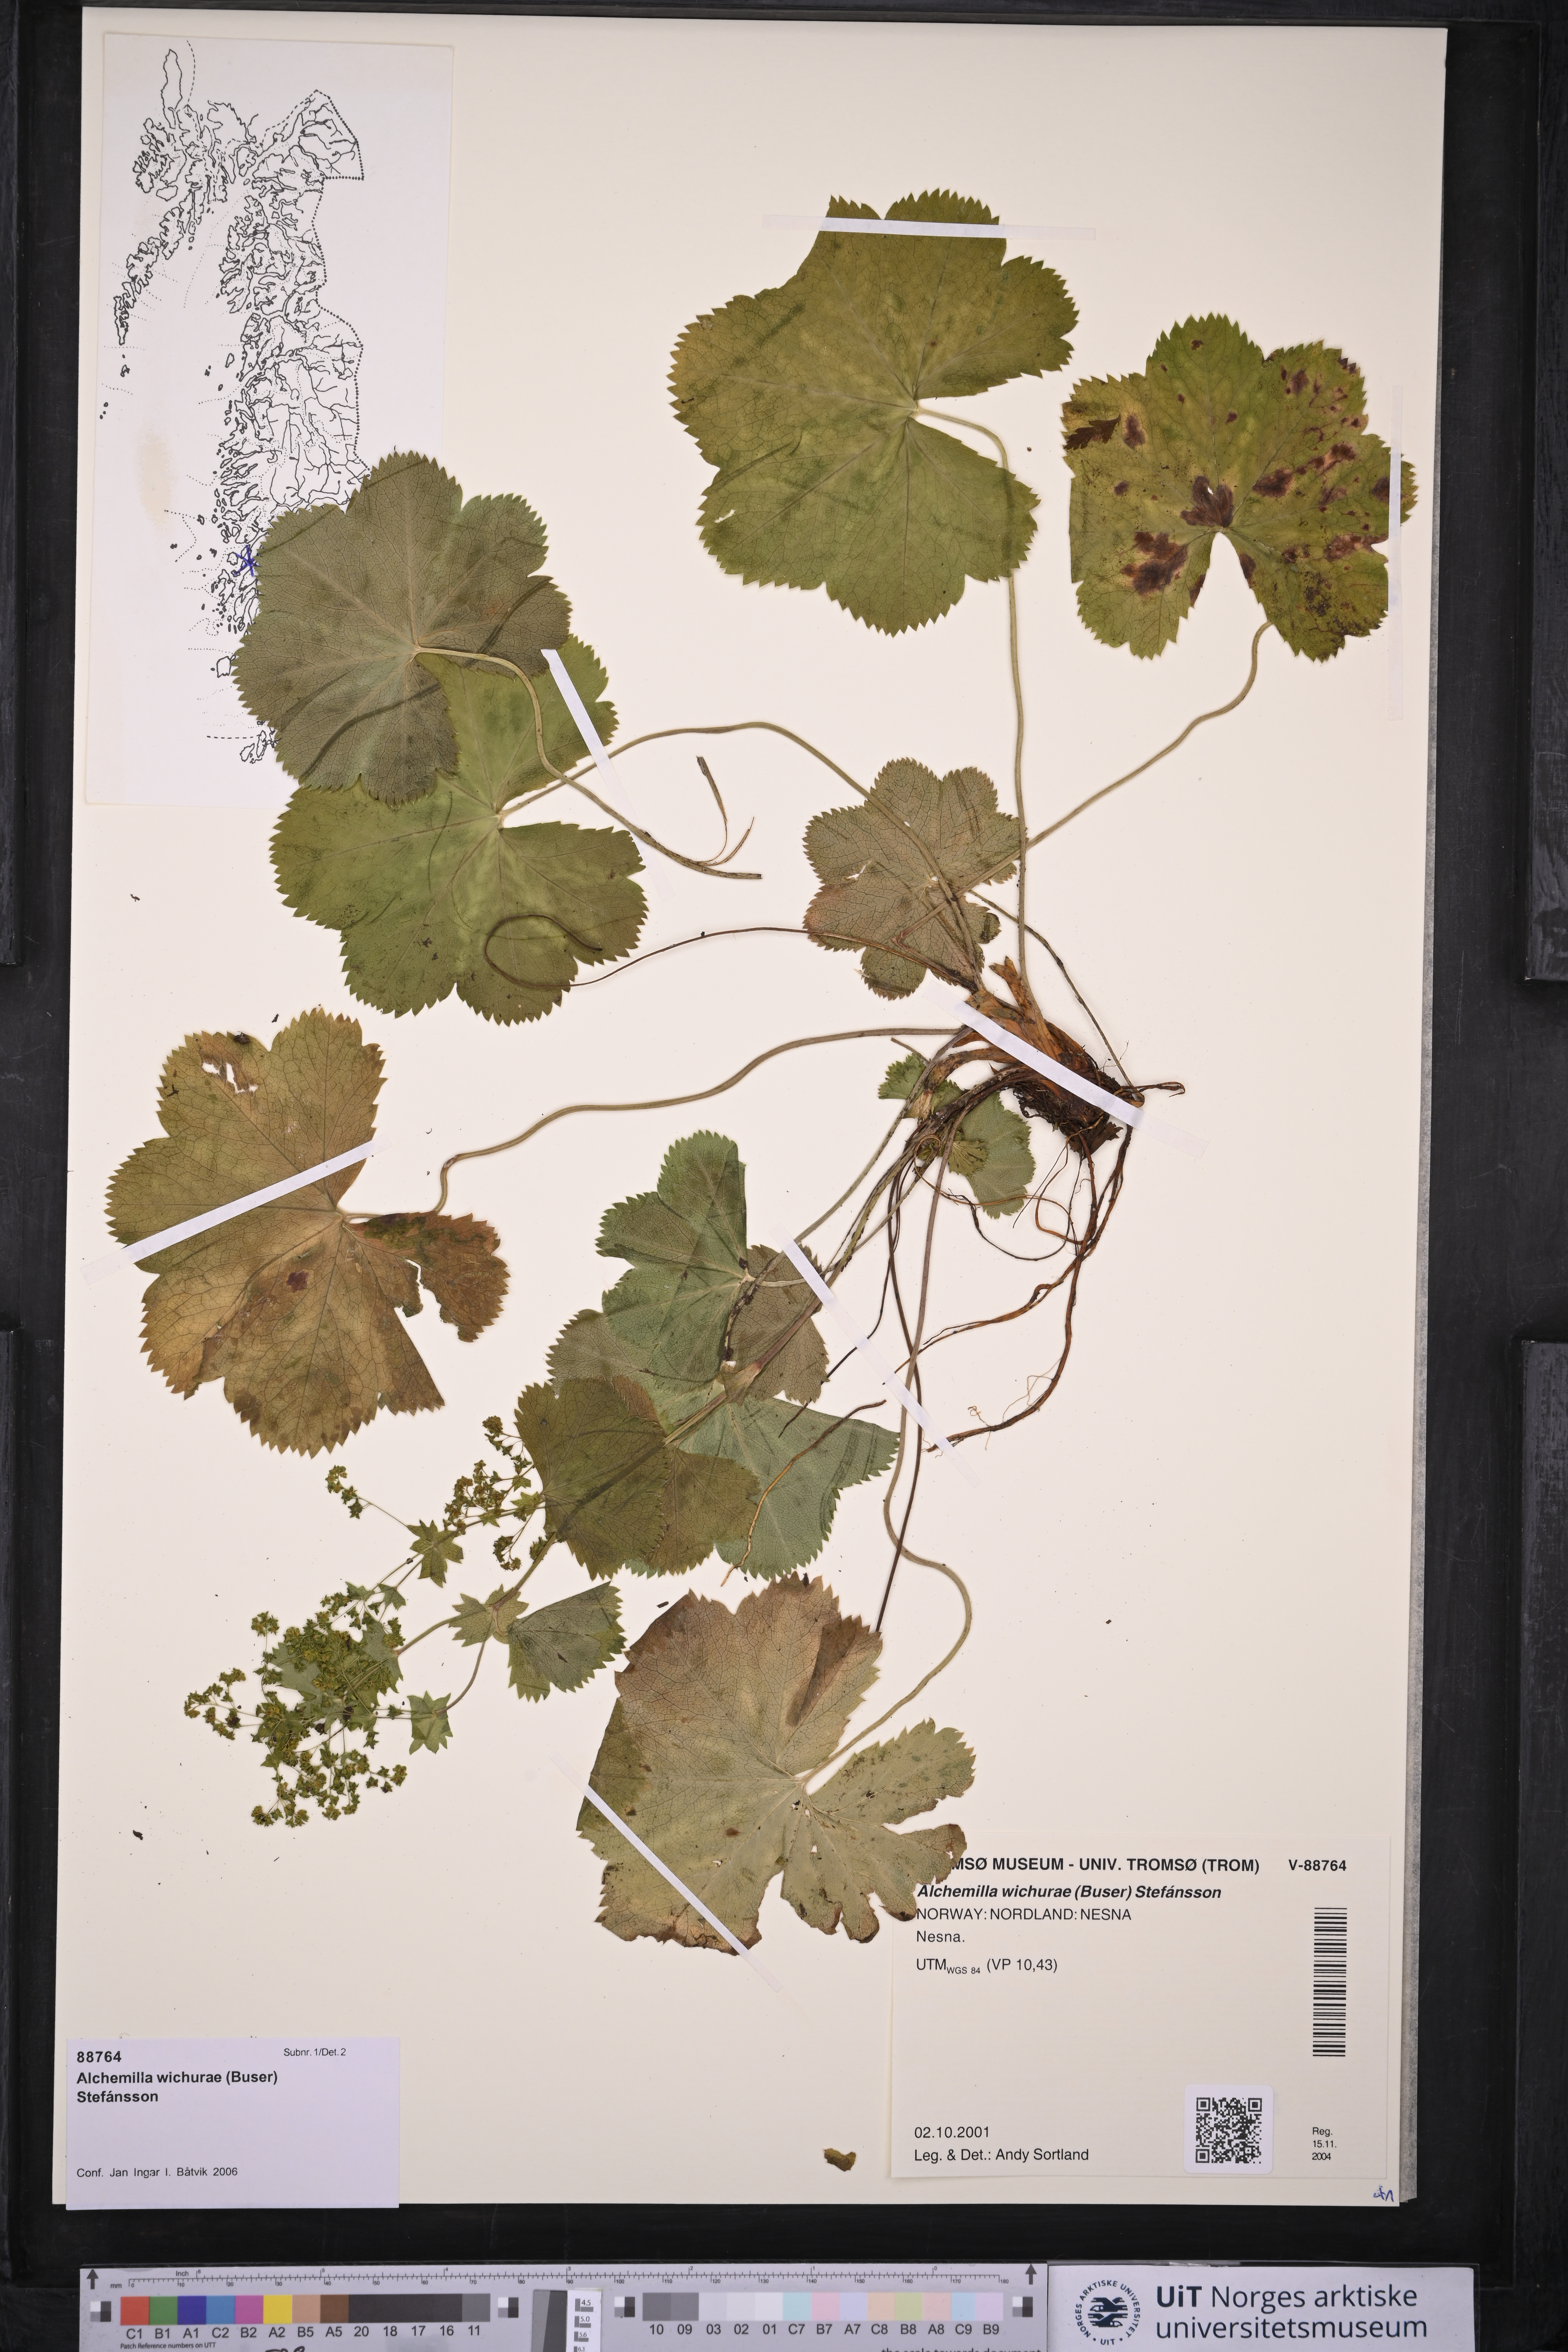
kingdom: Plantae
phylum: Tracheophyta
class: Magnoliopsida
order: Rosales
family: Rosaceae
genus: Alchemilla
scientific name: Alchemilla wichurae
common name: Rock lady's mantle
